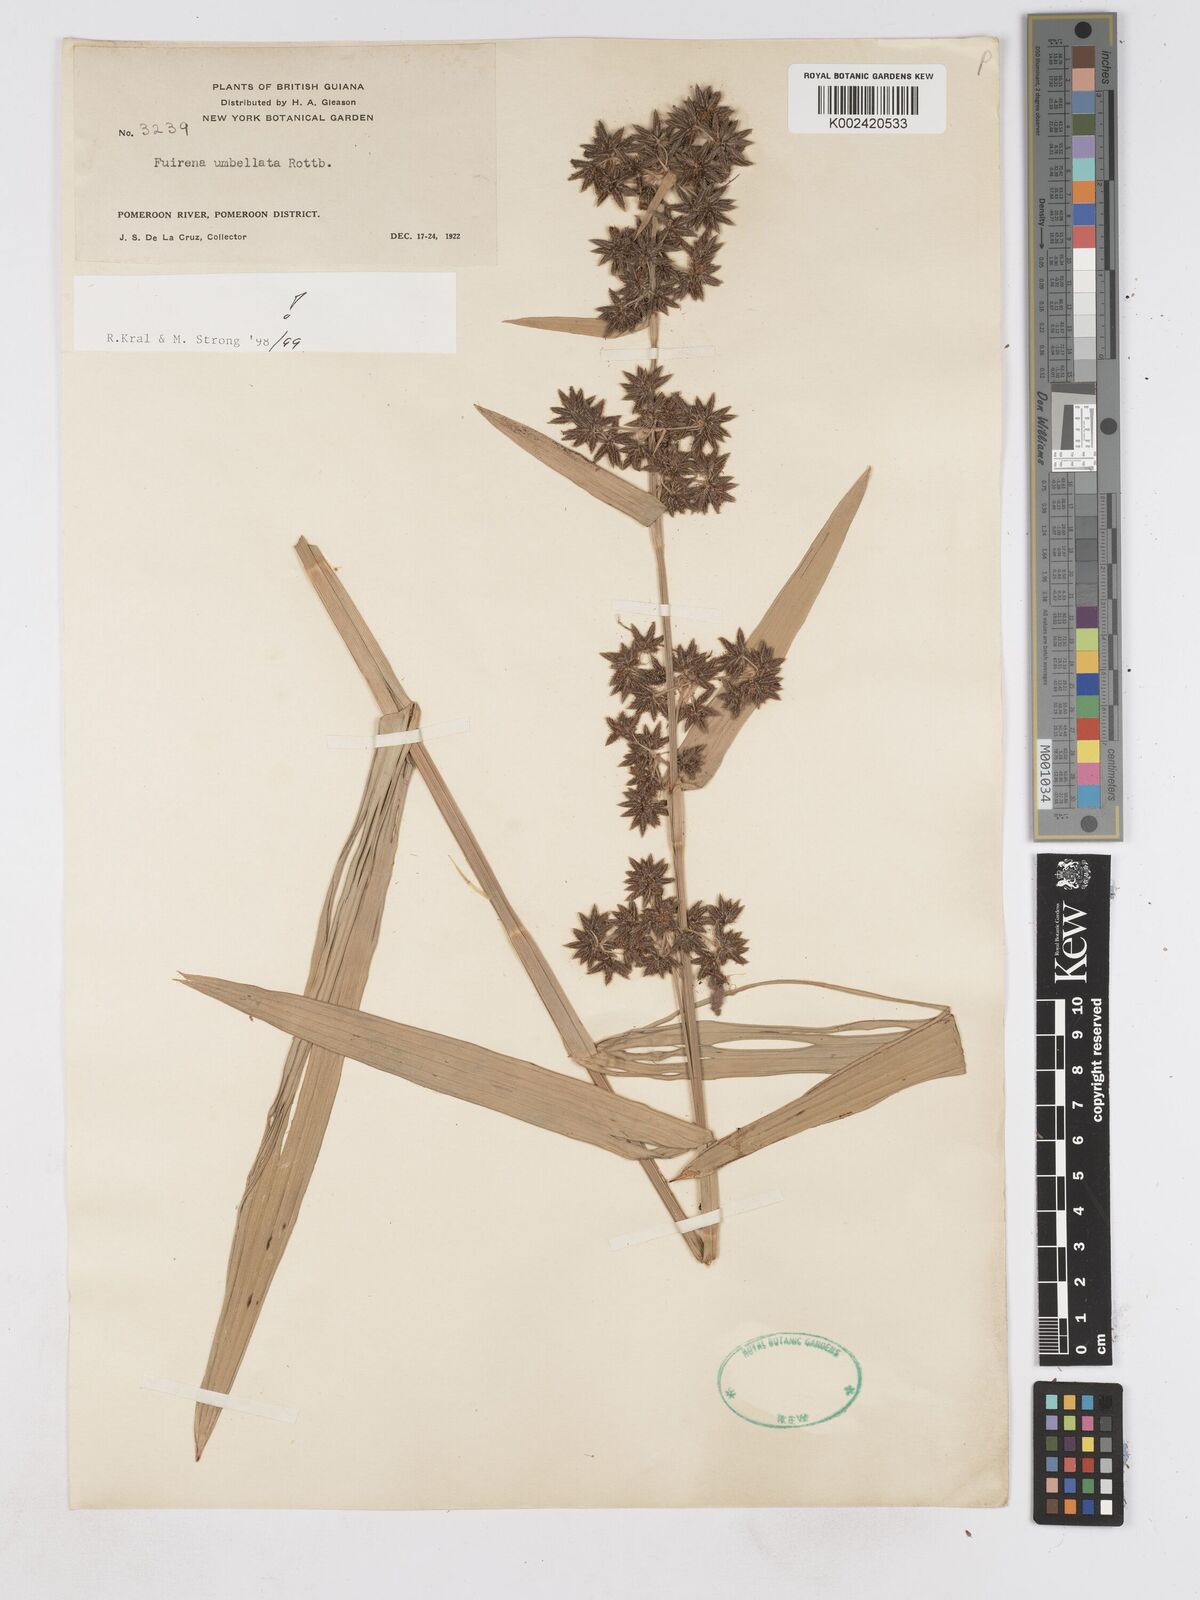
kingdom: Plantae
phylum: Tracheophyta
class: Liliopsida
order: Poales
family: Cyperaceae
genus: Fuirena
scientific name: Fuirena umbellata
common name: Yefen
